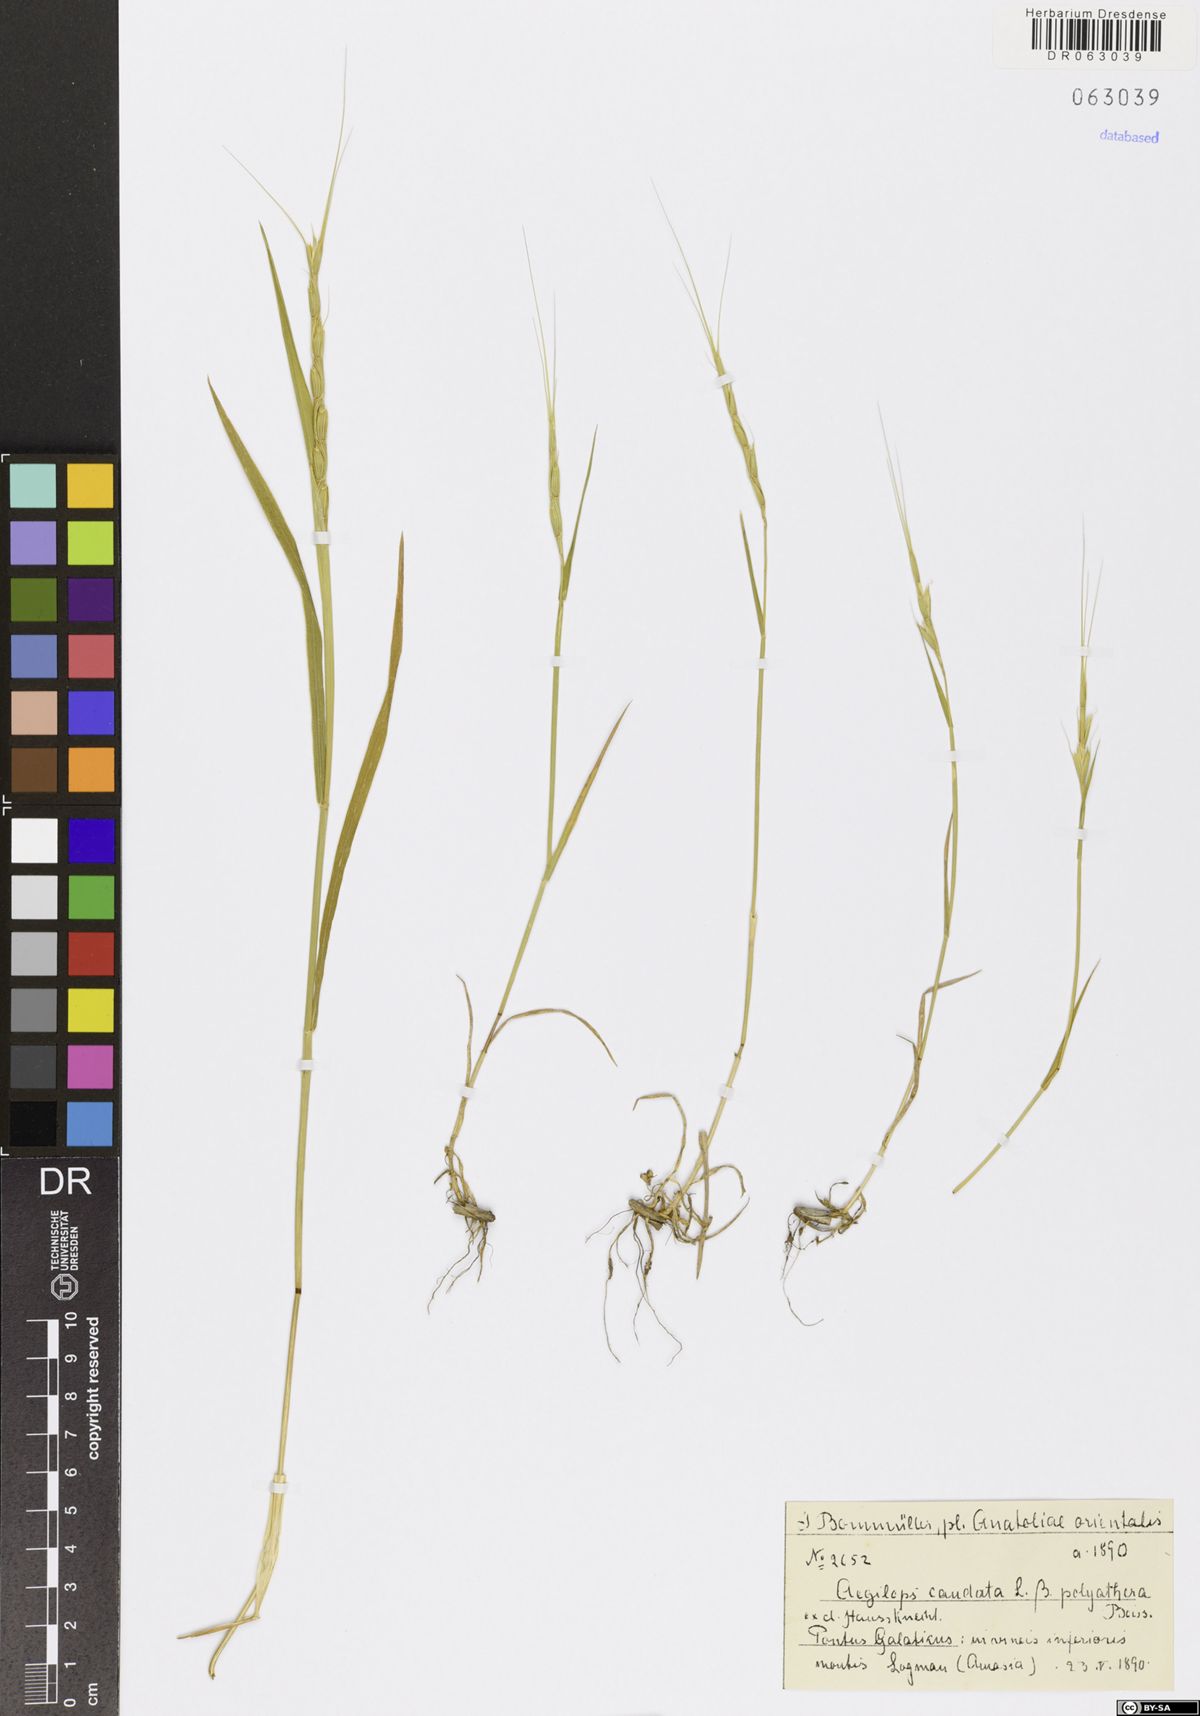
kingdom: Plantae
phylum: Tracheophyta
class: Liliopsida
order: Poales
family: Poaceae
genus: Aegilops
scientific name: Aegilops caudata
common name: Cretan hard-grass
